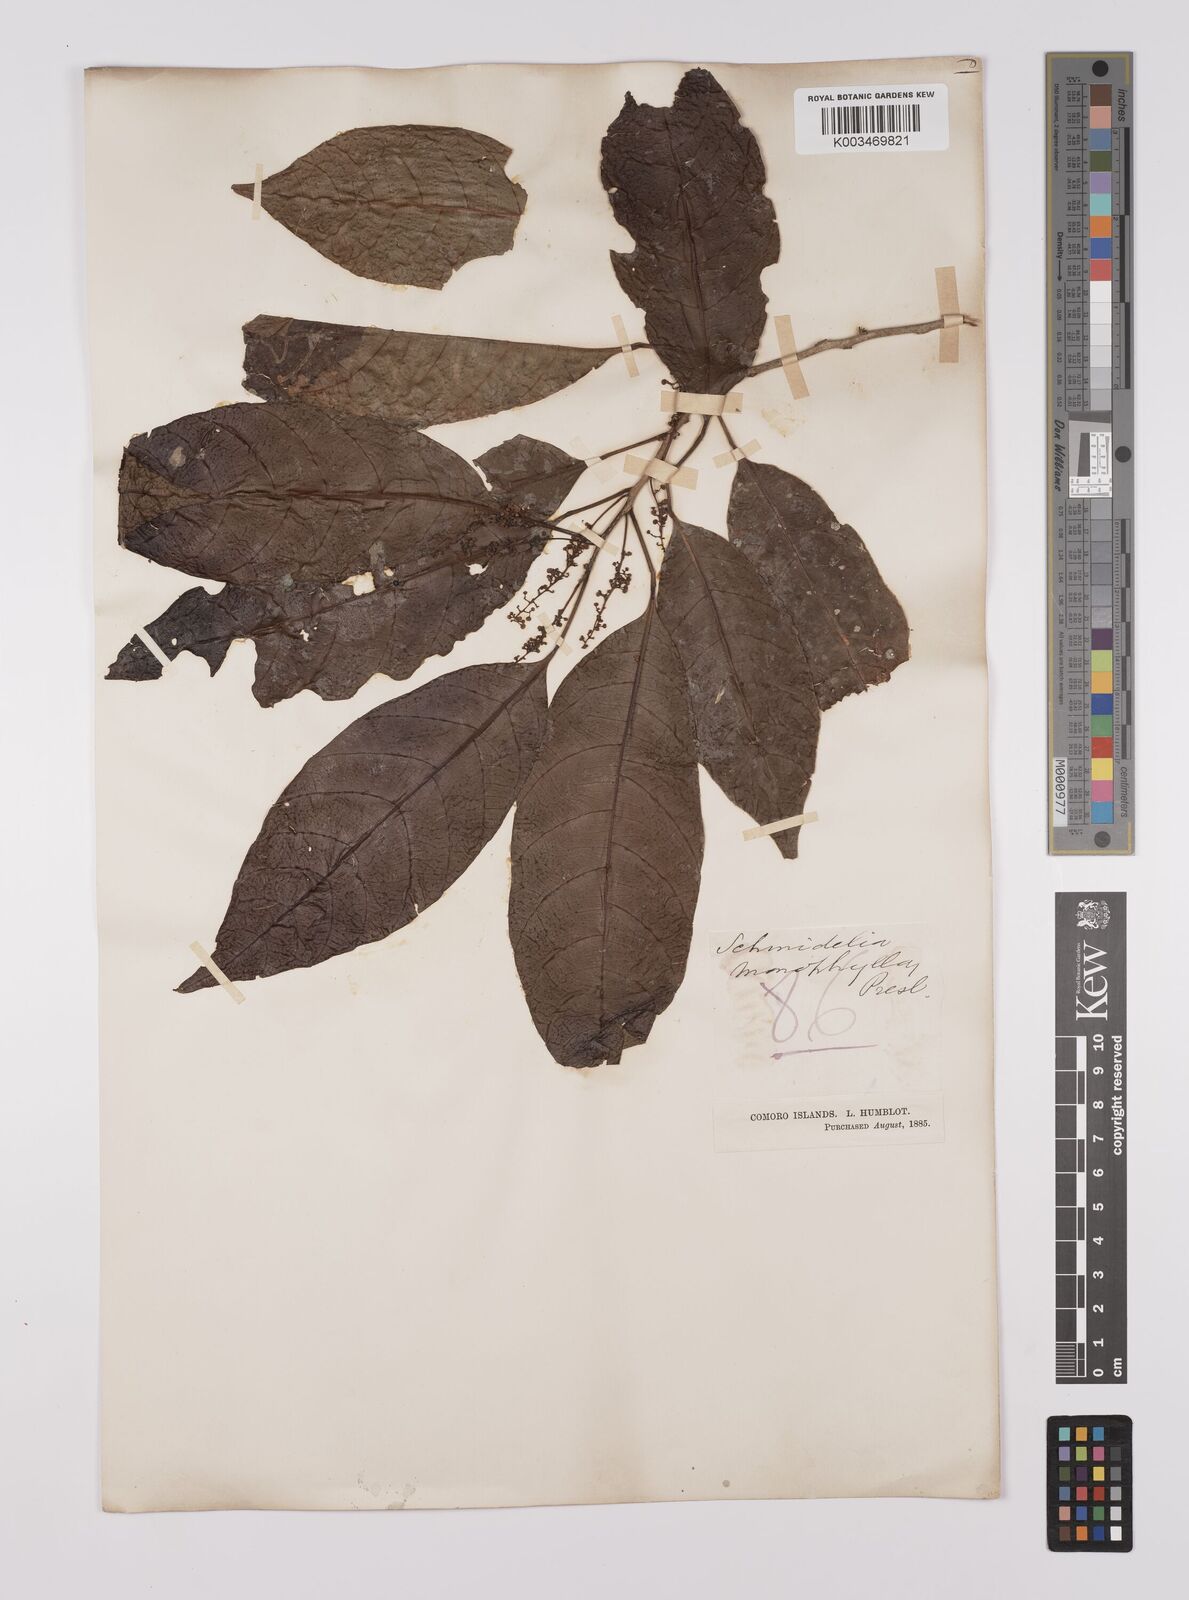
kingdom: Plantae
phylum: Tracheophyta
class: Magnoliopsida
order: Sapindales
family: Sapindaceae
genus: Allophylus
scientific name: Allophylus pervillei
